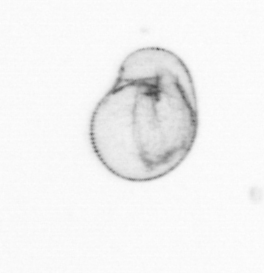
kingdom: Chromista
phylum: Myzozoa
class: Dinophyceae
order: Noctilucales
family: Noctilucaceae
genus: Noctiluca
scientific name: Noctiluca scintillans
